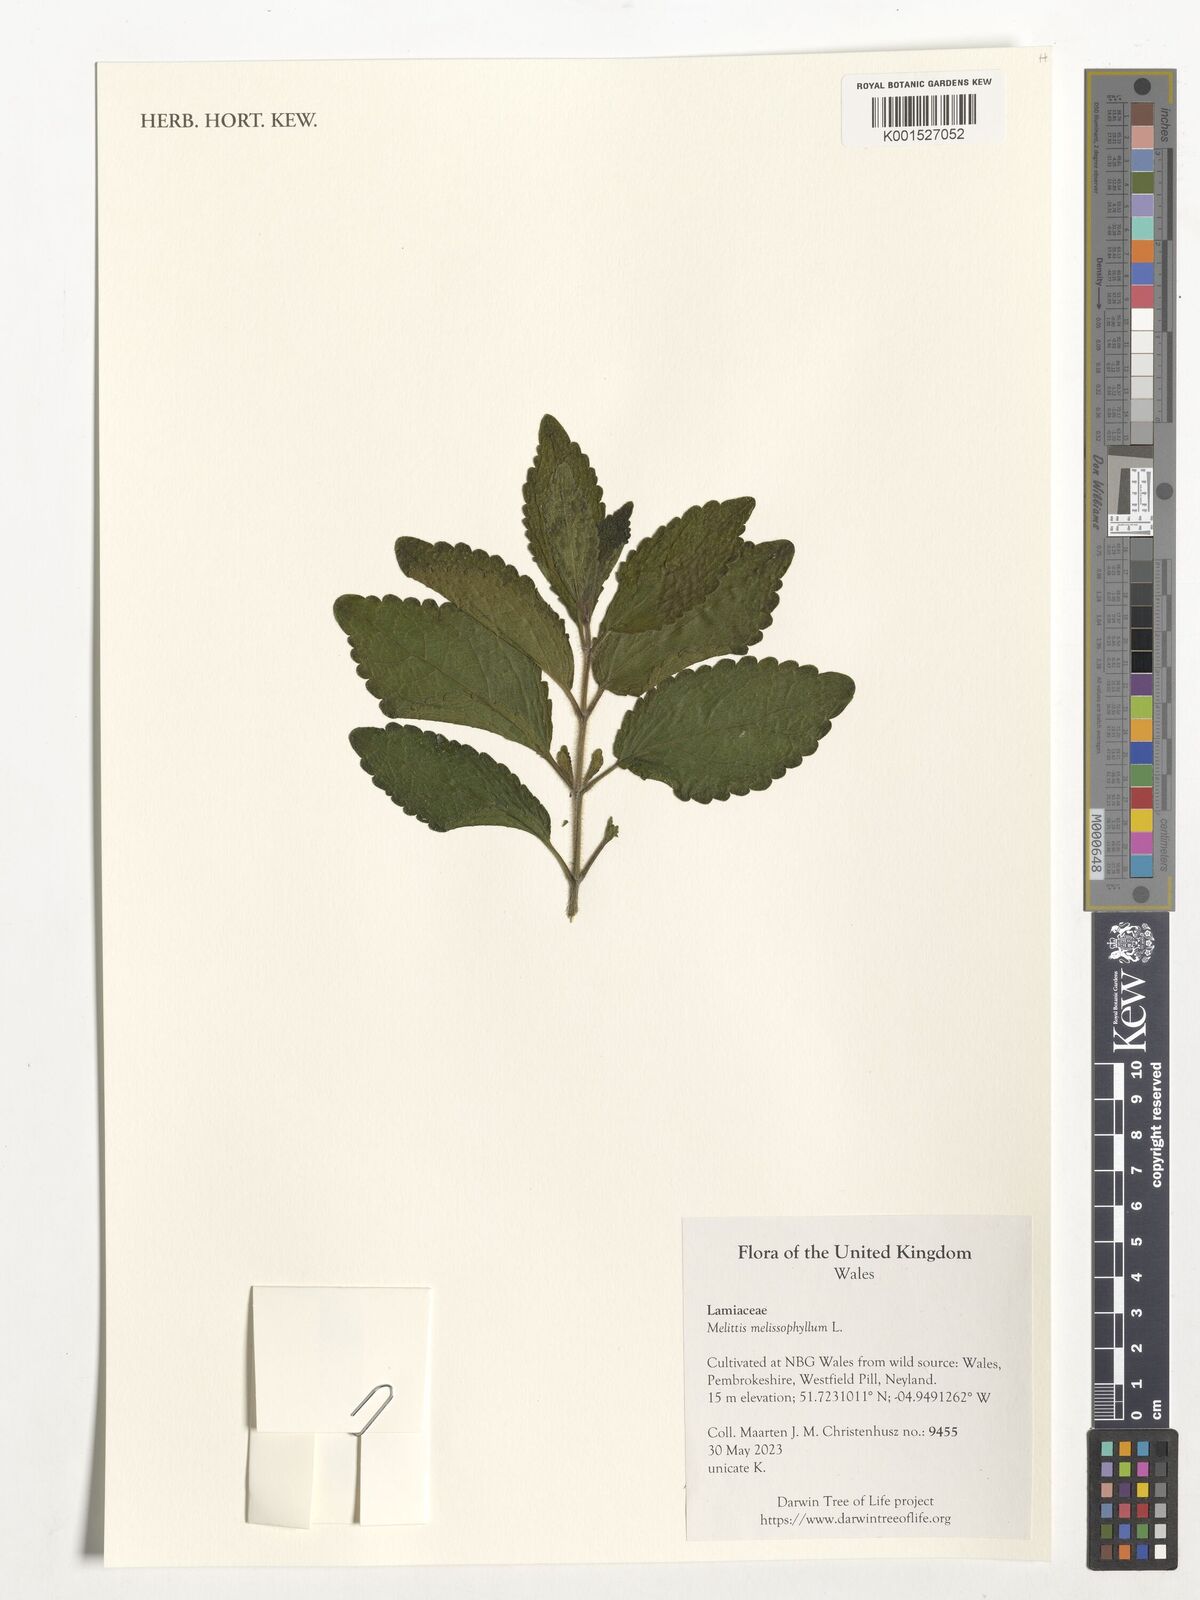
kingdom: Plantae
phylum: Tracheophyta
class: Magnoliopsida
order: Lamiales
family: Lamiaceae
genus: Melittis
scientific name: Melittis melissophyllum
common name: Bastard balm
